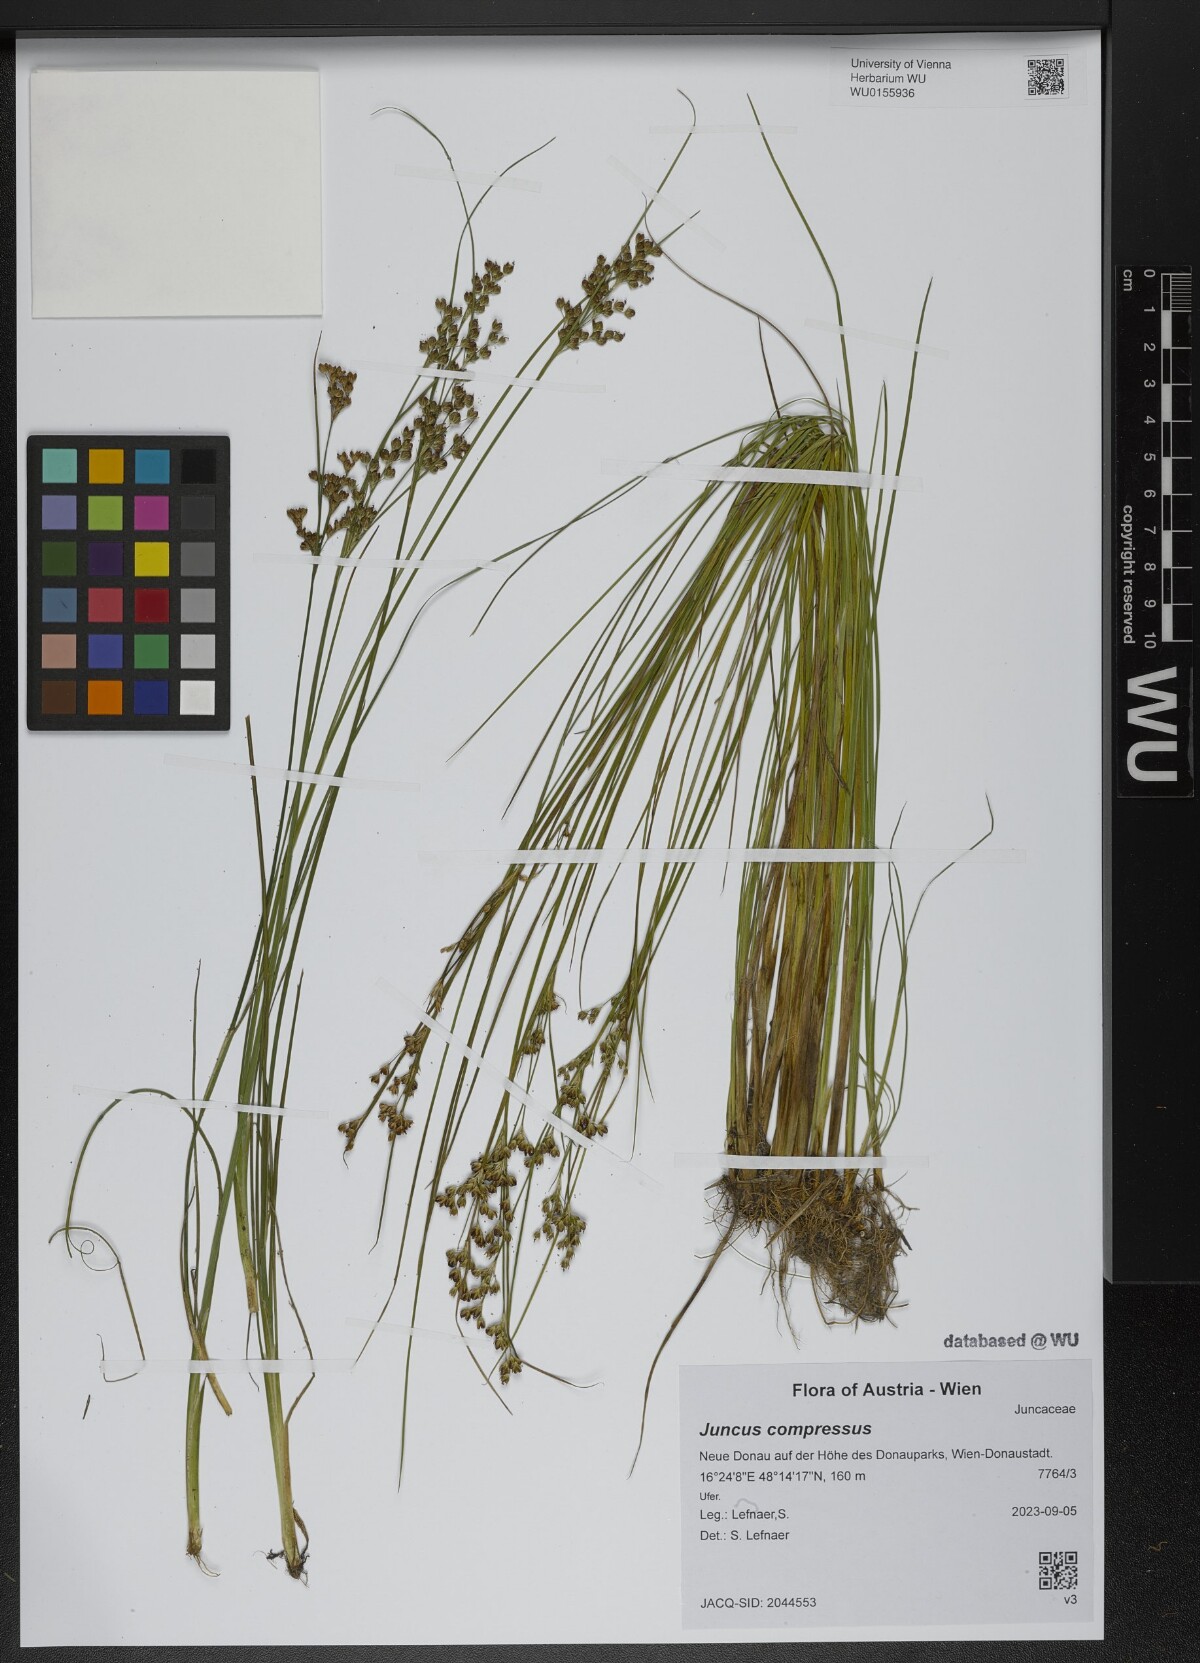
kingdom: Plantae
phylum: Tracheophyta
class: Liliopsida
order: Poales
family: Juncaceae
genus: Juncus
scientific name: Juncus compressus
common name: Round-fruited rush
